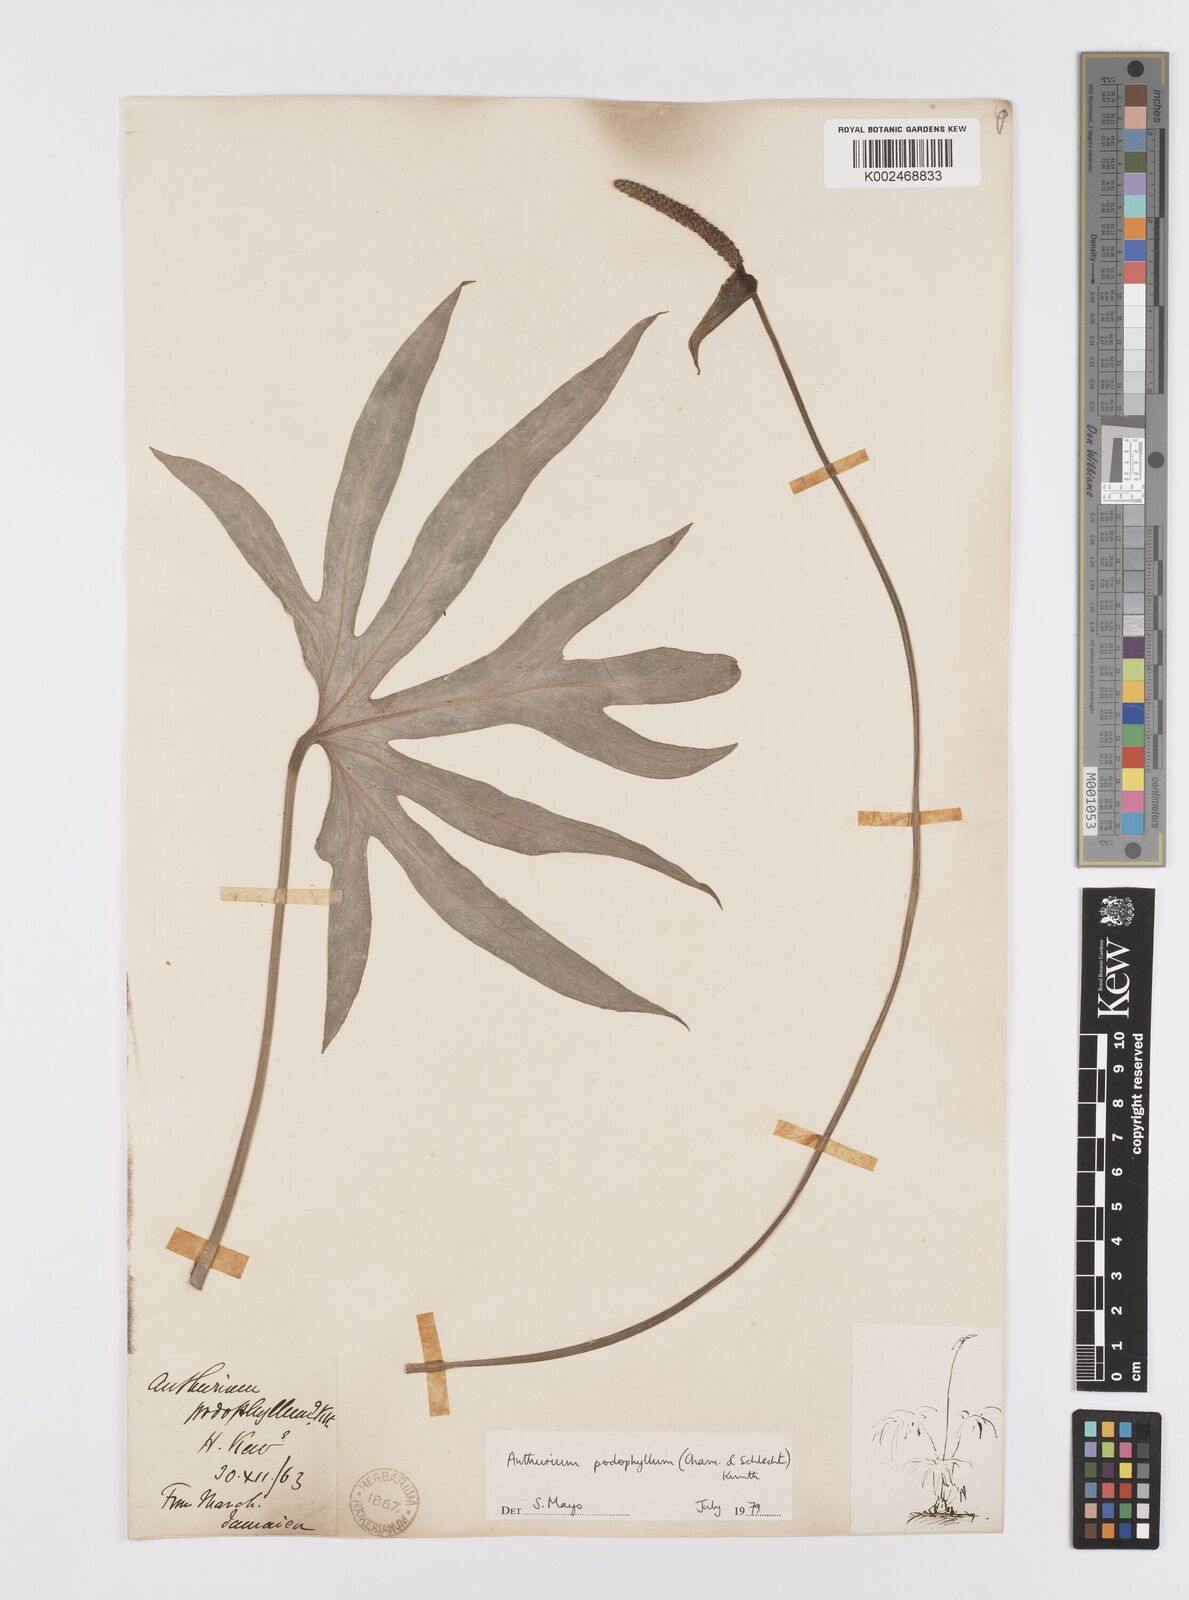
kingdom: Plantae
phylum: Tracheophyta
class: Liliopsida
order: Alismatales
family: Araceae
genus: Anthurium
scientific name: Anthurium podophyllum
